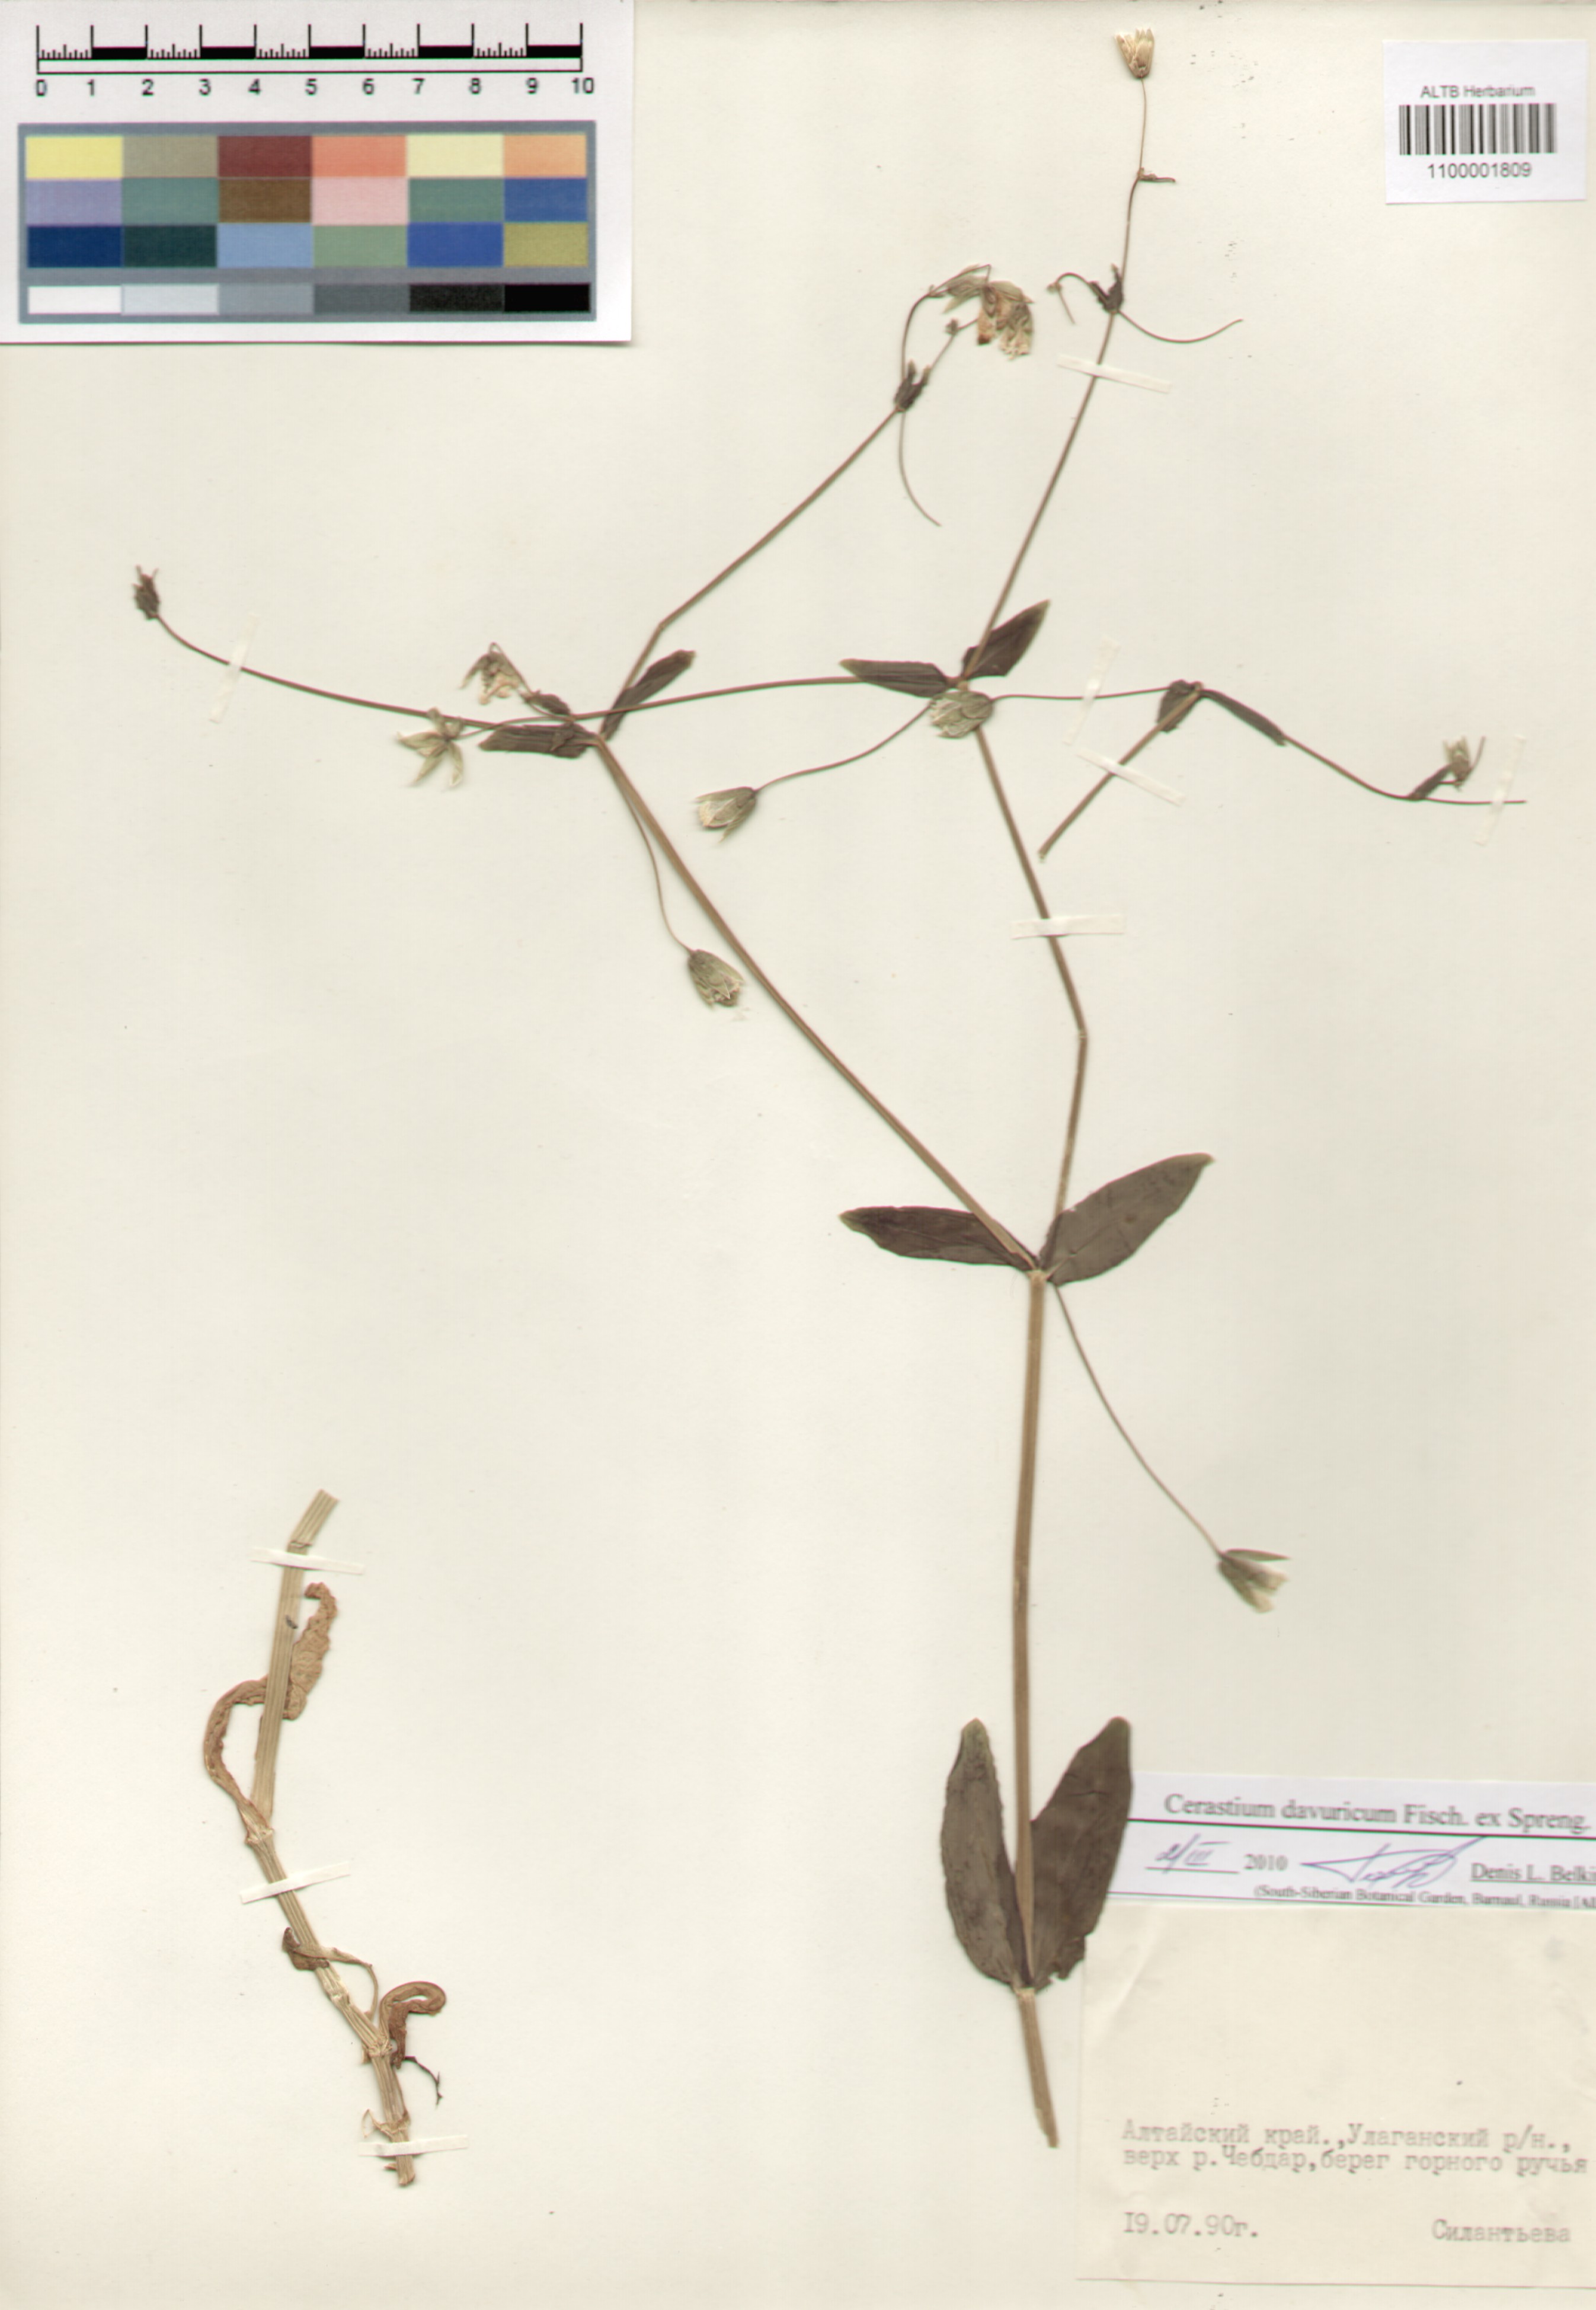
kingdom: Plantae
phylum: Tracheophyta
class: Magnoliopsida
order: Caryophyllales
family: Caryophyllaceae
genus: Dichodon
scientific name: Dichodon davuricum
